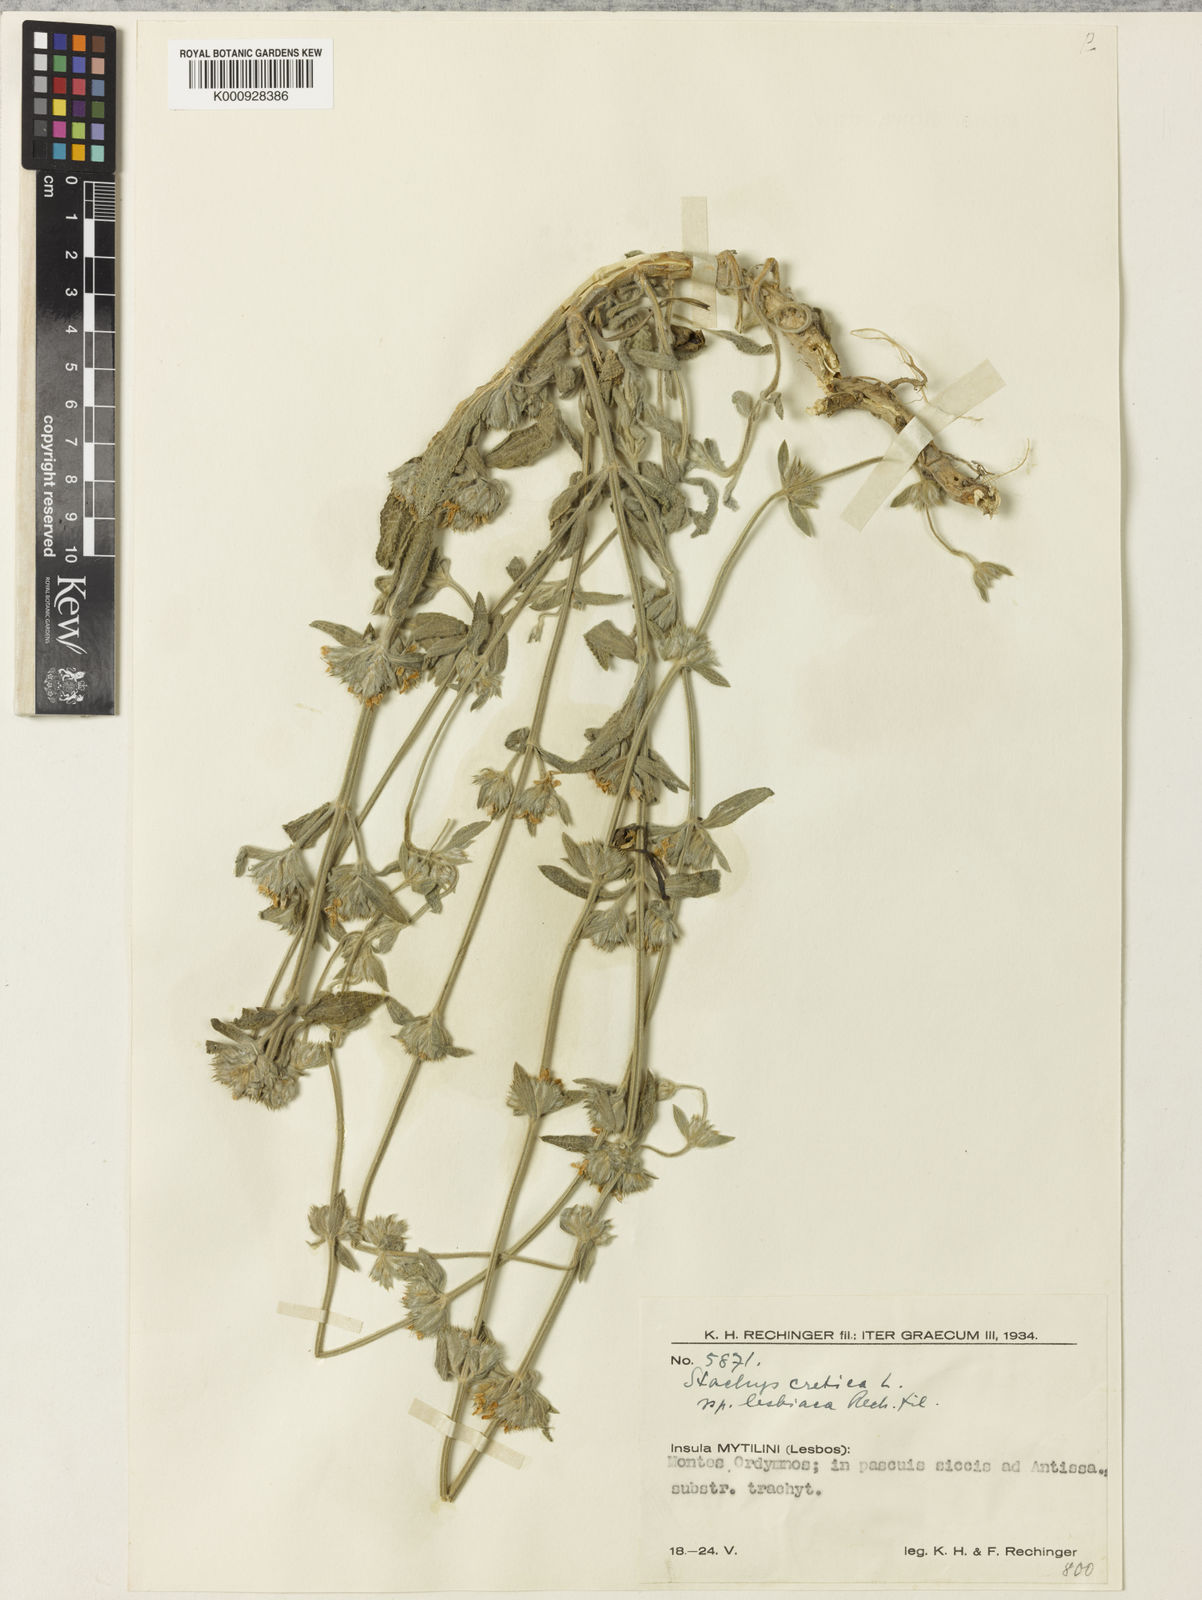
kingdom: Plantae
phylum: Tracheophyta
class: Magnoliopsida
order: Lamiales
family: Lamiaceae
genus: Stachys
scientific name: Stachys cretica
